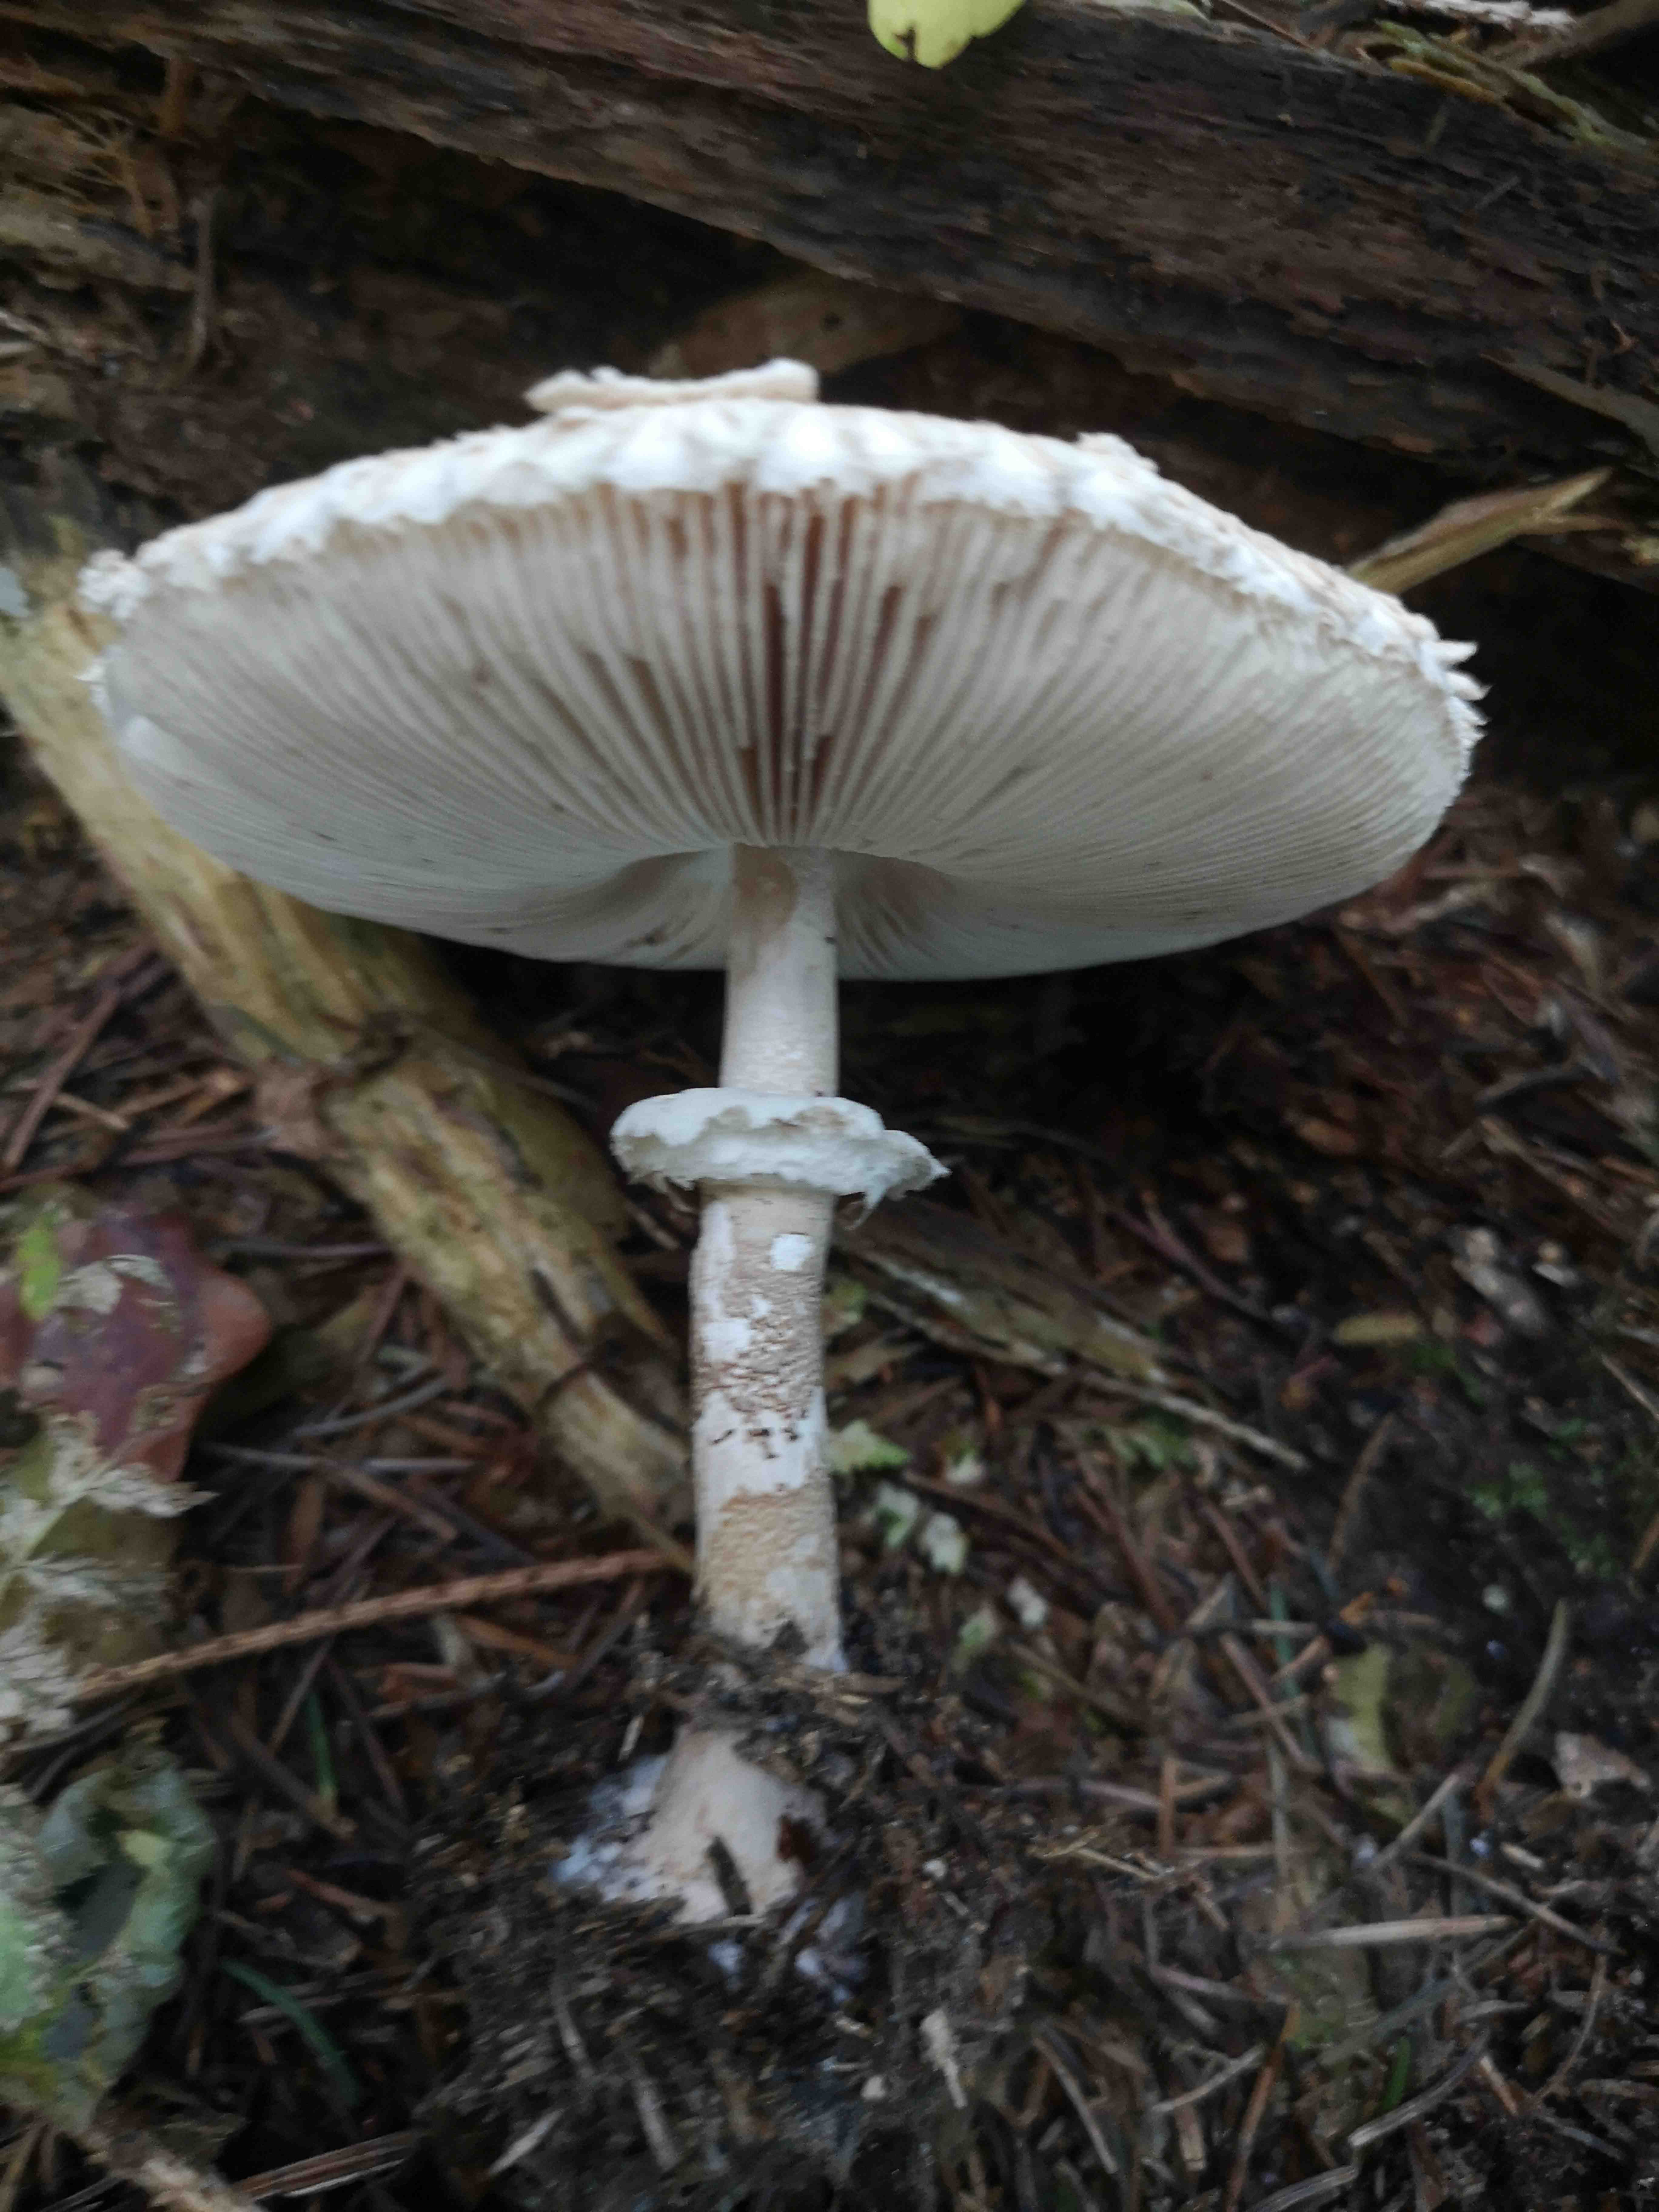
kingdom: Fungi
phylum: Basidiomycota
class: Agaricomycetes
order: Agaricales
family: Agaricaceae
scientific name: Agaricaceae
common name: champignonfamilien
